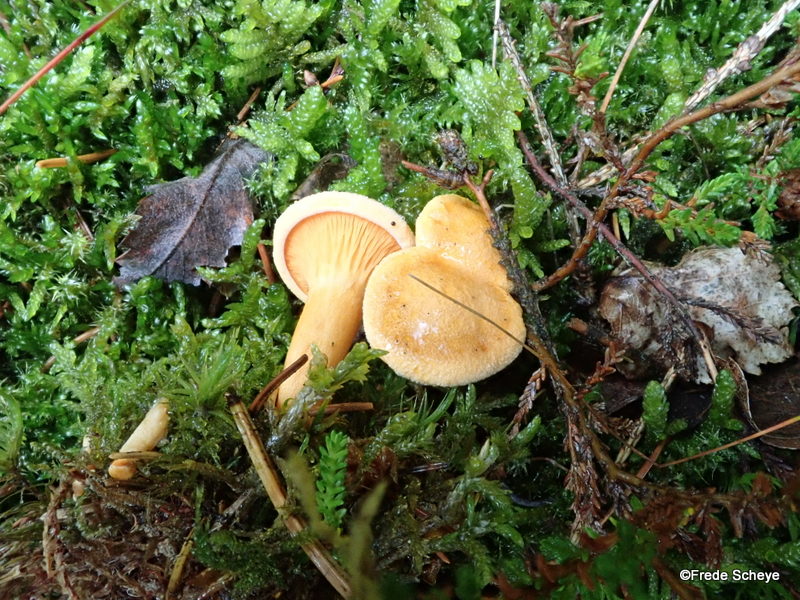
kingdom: Fungi
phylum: Basidiomycota
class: Agaricomycetes
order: Boletales
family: Hygrophoropsidaceae
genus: Hygrophoropsis
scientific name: Hygrophoropsis aurantiaca
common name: almindelig orangekantarel
